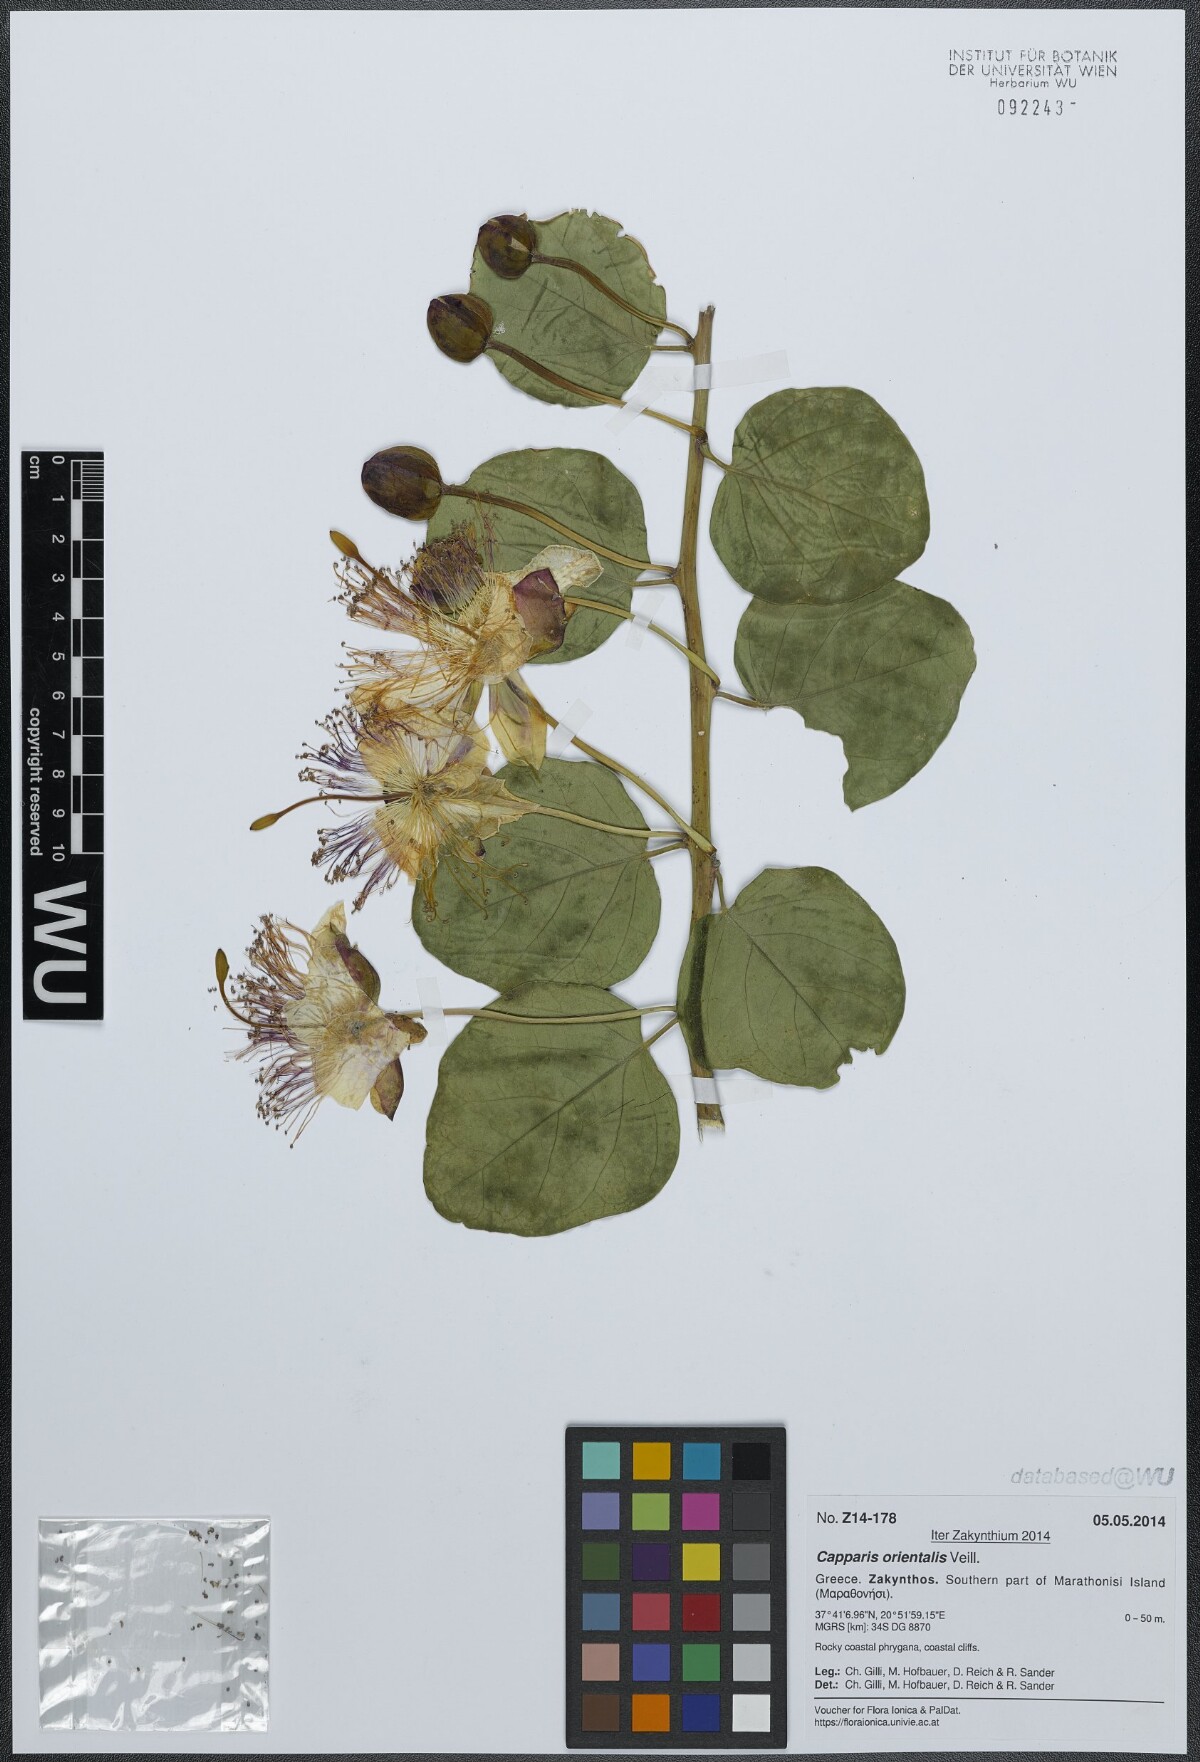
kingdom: Plantae
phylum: Tracheophyta
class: Magnoliopsida
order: Brassicales
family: Capparaceae
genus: Capparis
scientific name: Capparis spinosa
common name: Caper
